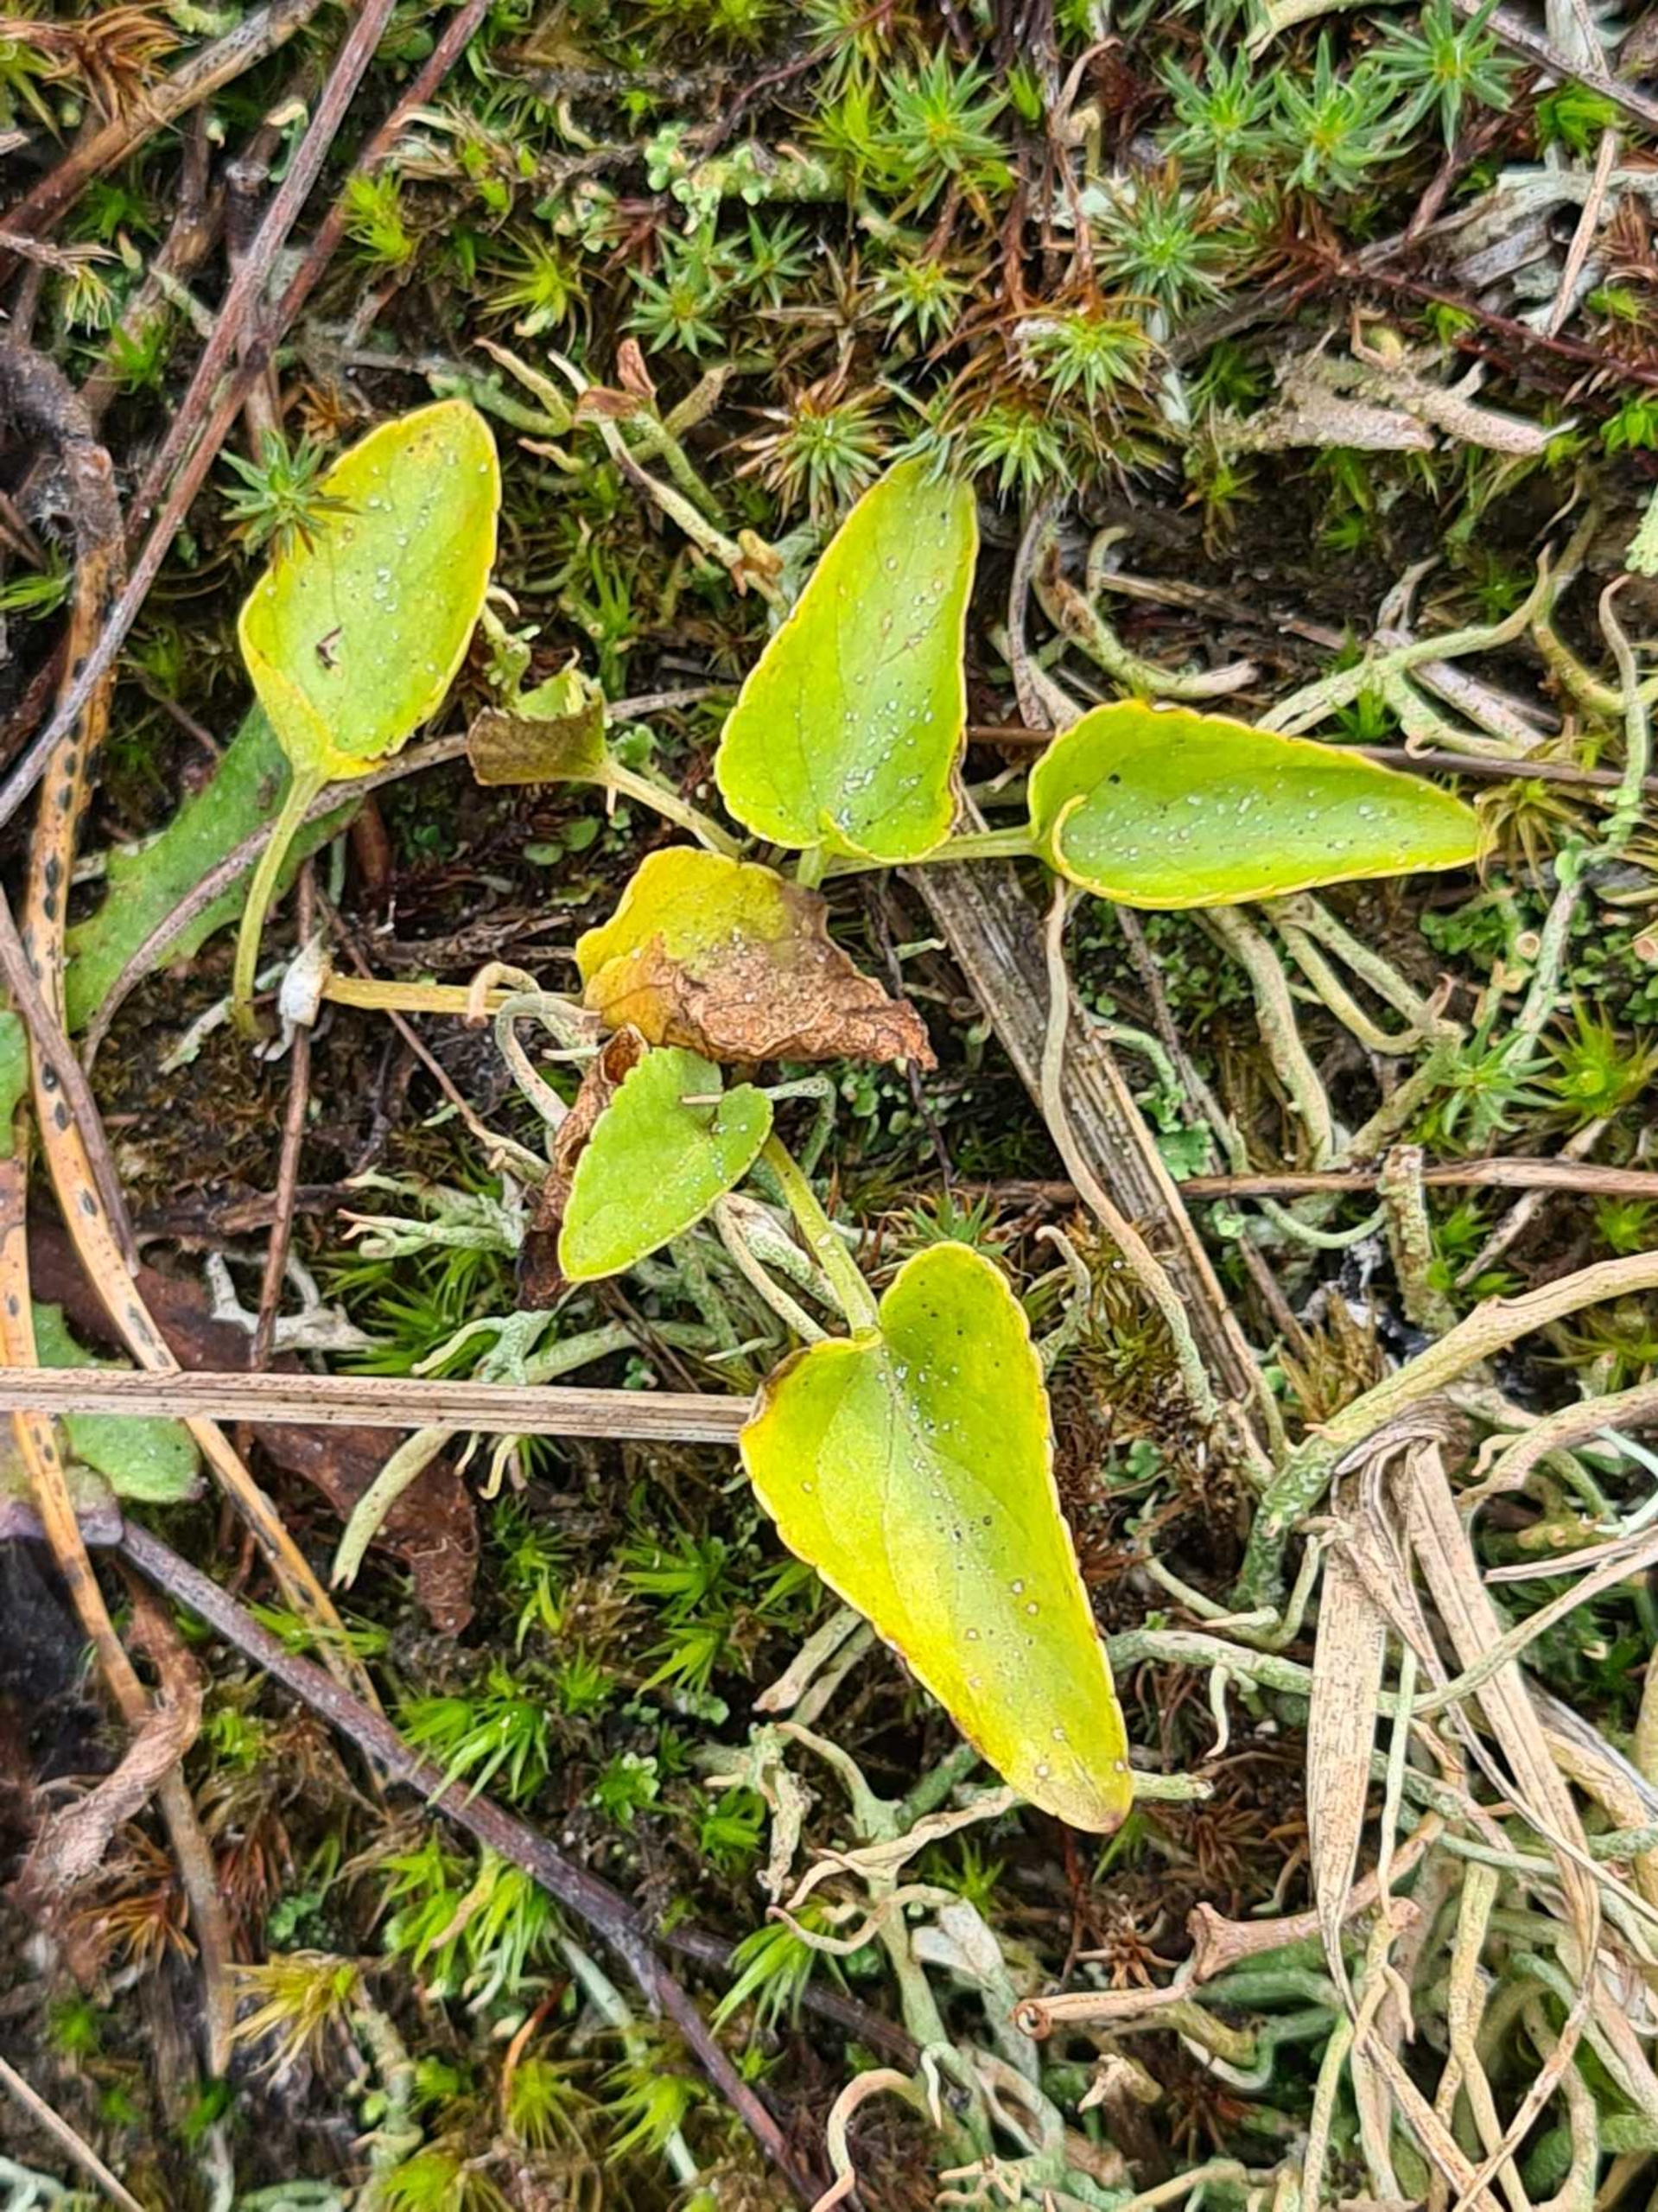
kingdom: Plantae
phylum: Tracheophyta
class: Magnoliopsida
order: Malpighiales
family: Violaceae
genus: Viola
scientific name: Viola canina
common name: Hunde-viol
